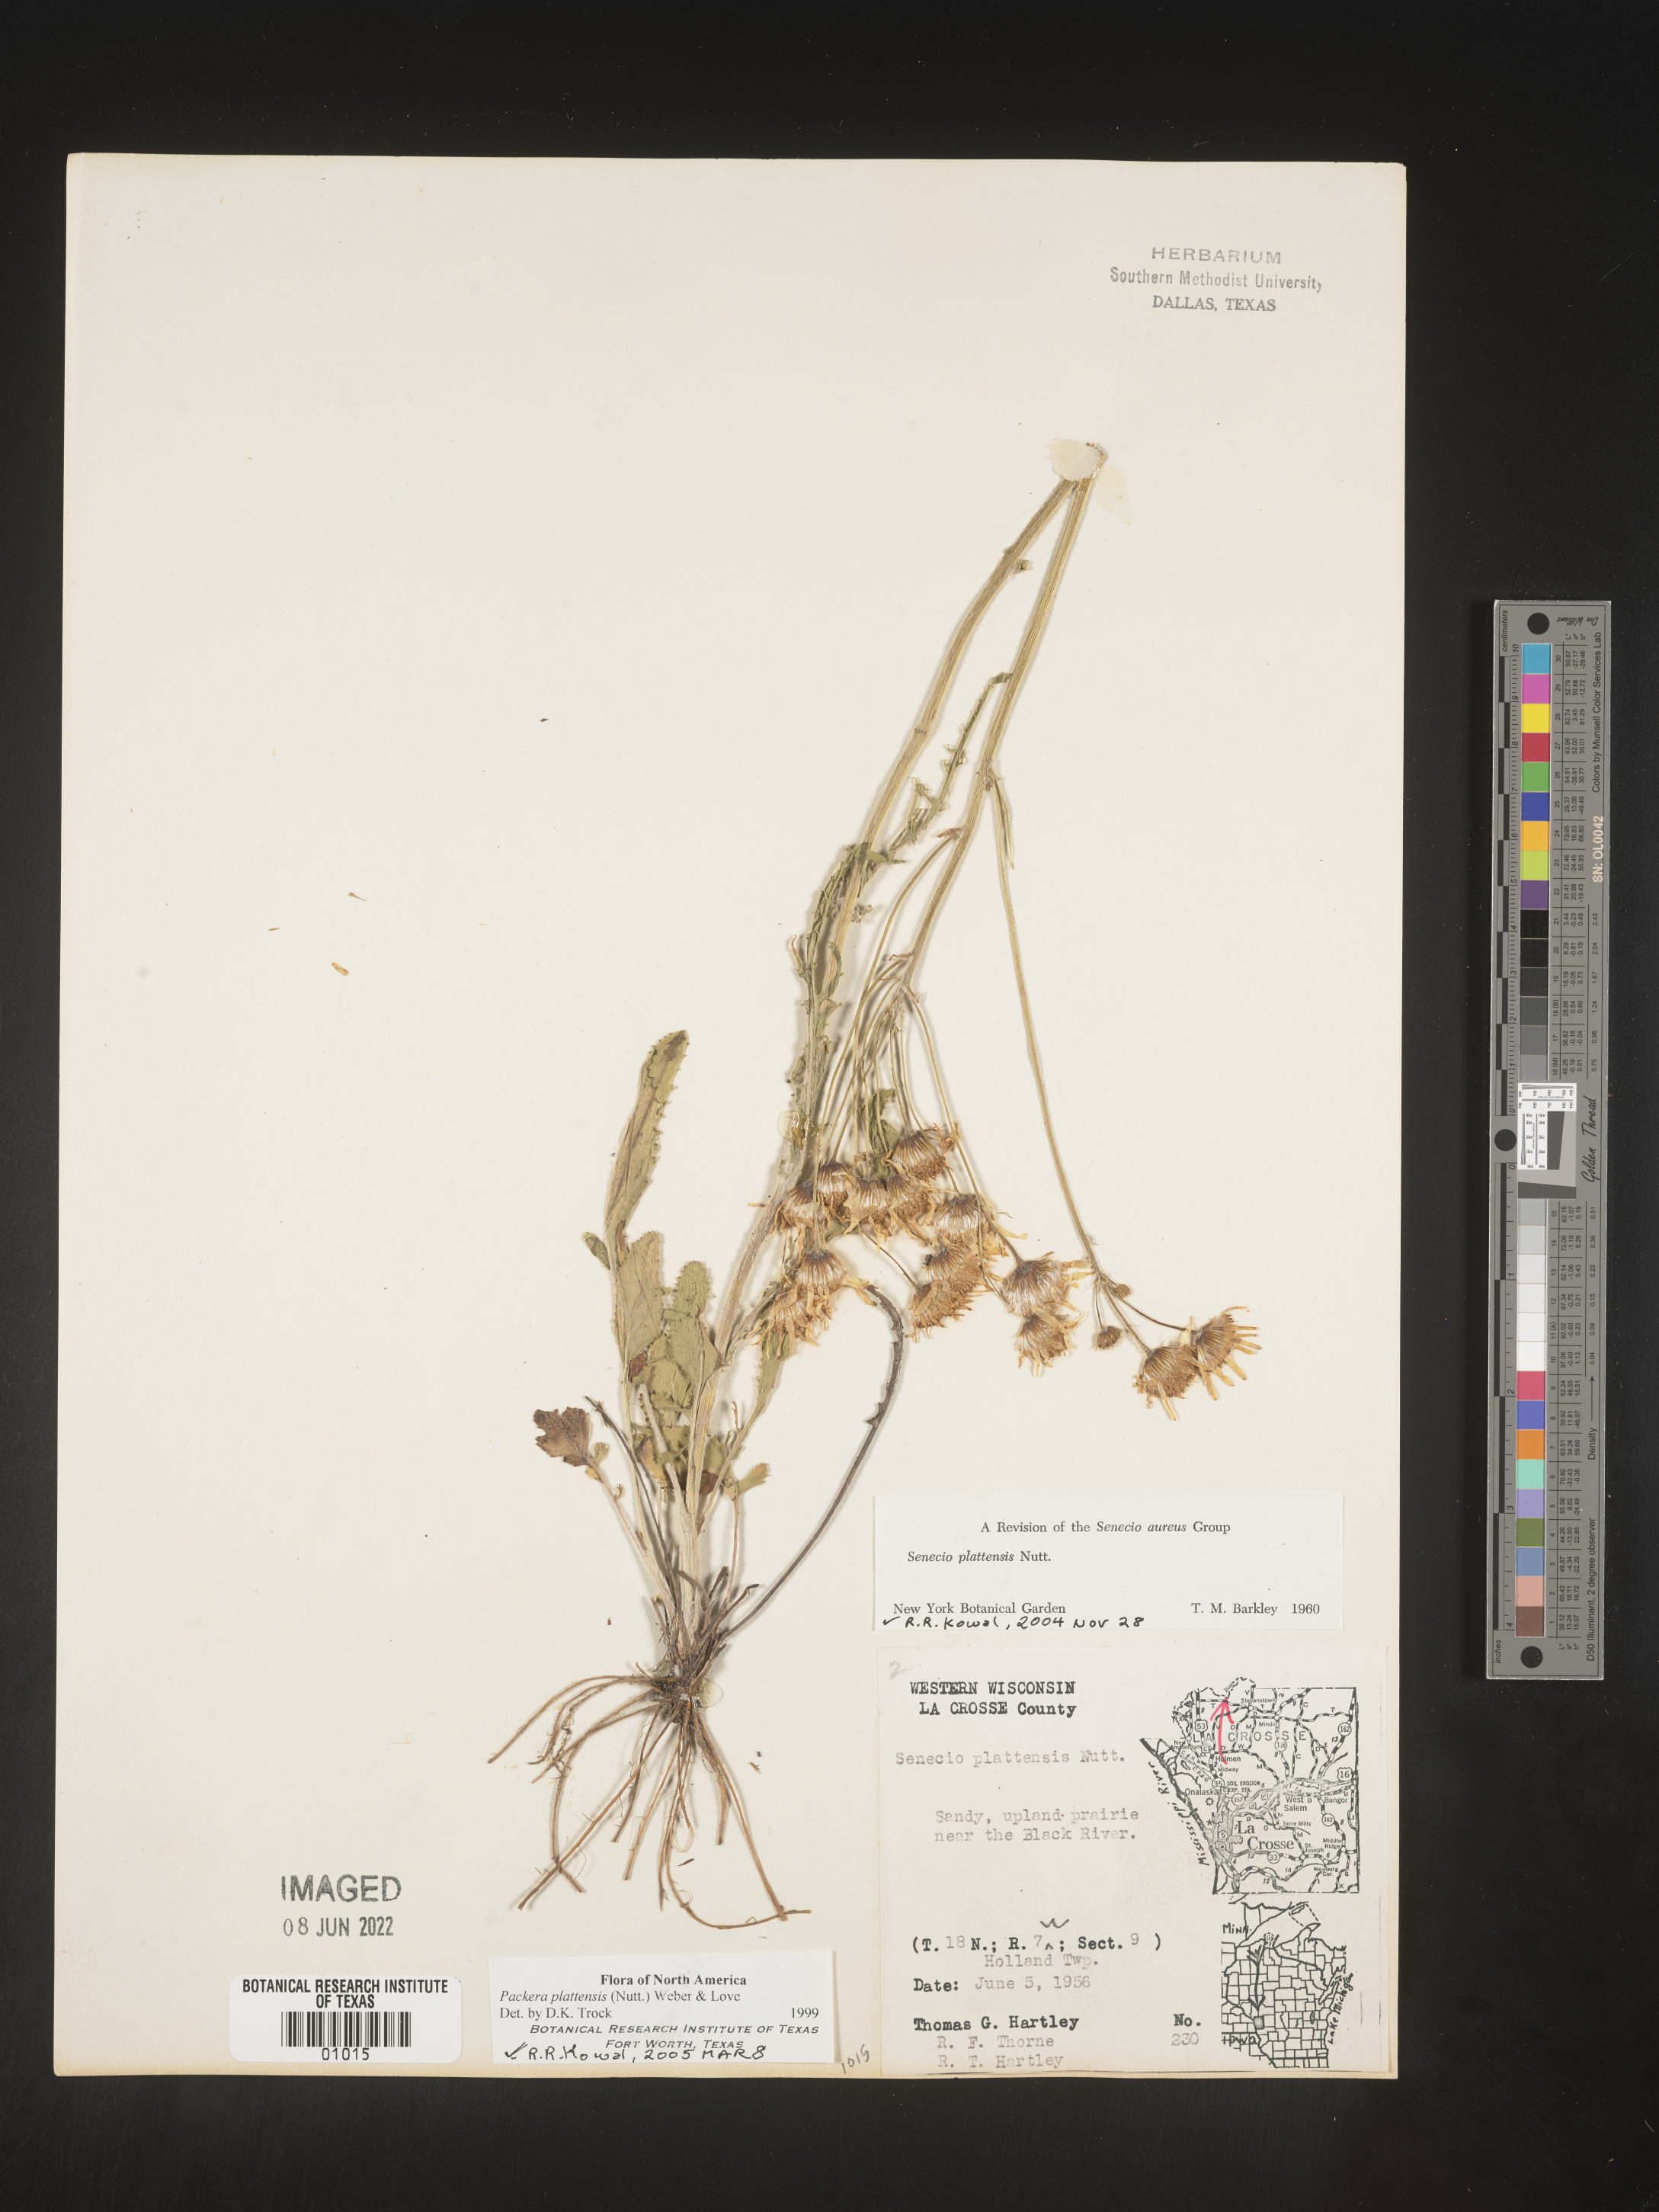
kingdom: Plantae
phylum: Tracheophyta
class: Magnoliopsida
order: Asterales
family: Asteraceae
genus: Packera
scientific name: Packera plattensis
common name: Prairie groundsel
